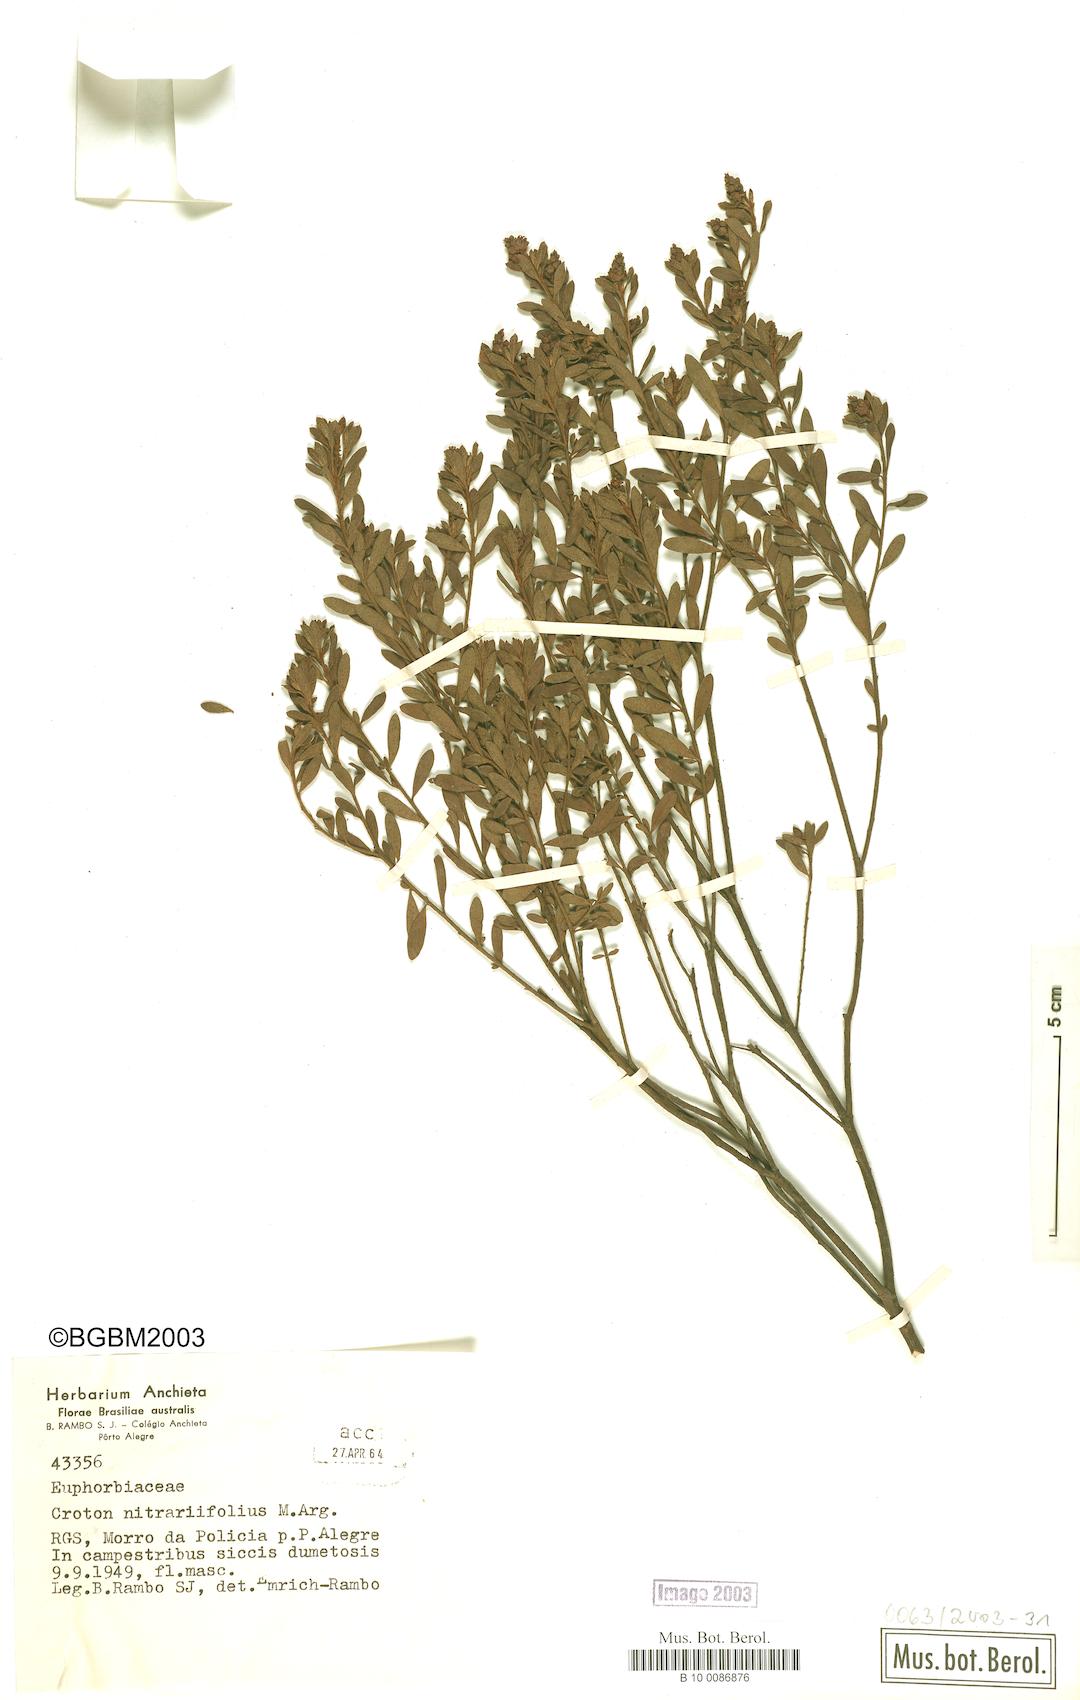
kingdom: Plantae
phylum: Tracheophyta
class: Magnoliopsida
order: Malpighiales
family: Euphorbiaceae
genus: Croton
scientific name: Croton nitrariifolius
